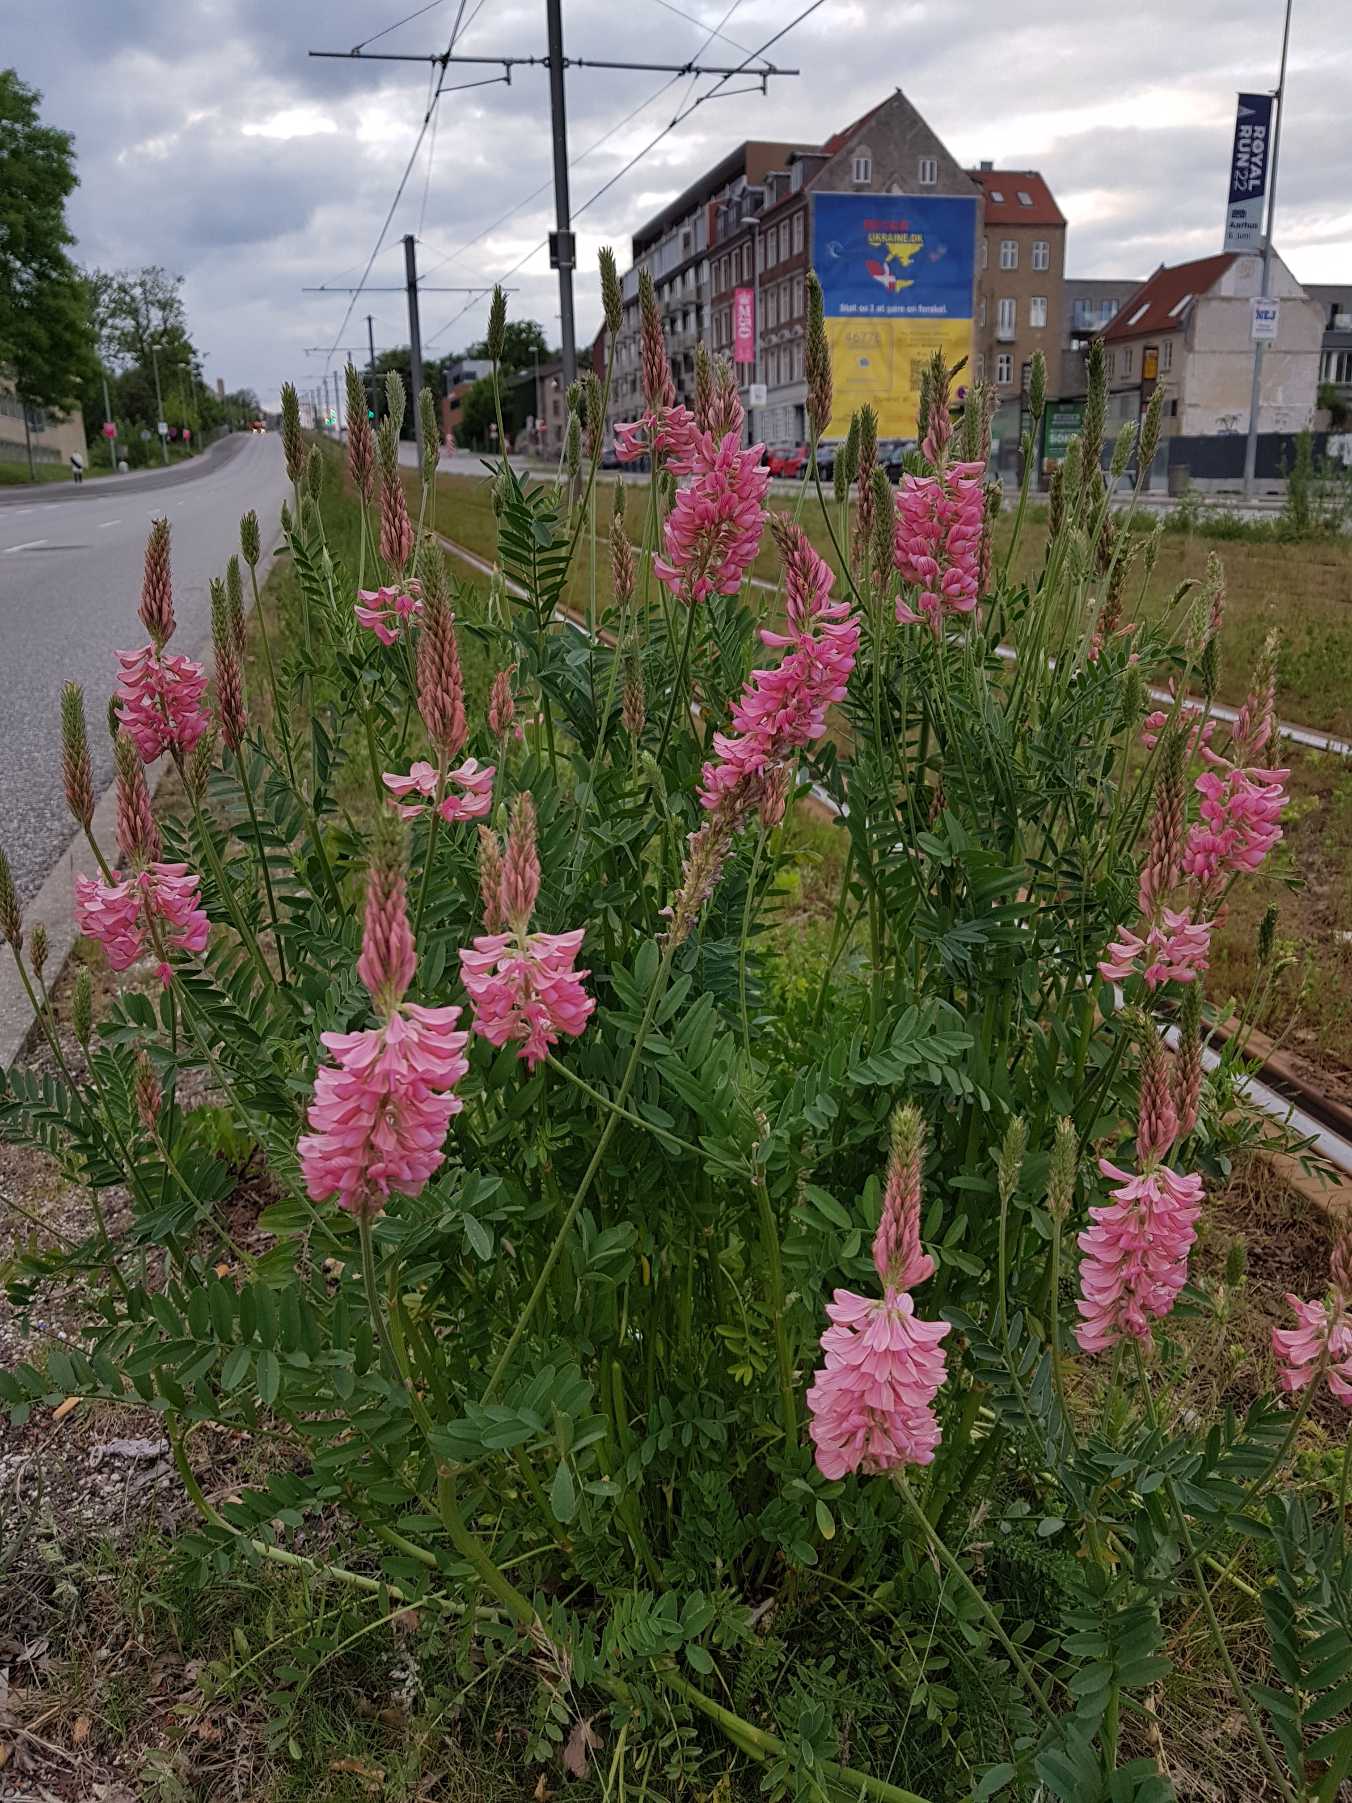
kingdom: Plantae
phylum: Tracheophyta
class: Magnoliopsida
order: Fabales
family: Fabaceae
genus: Onobrychis
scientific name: Onobrychis viciifolia
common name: Esparsette
